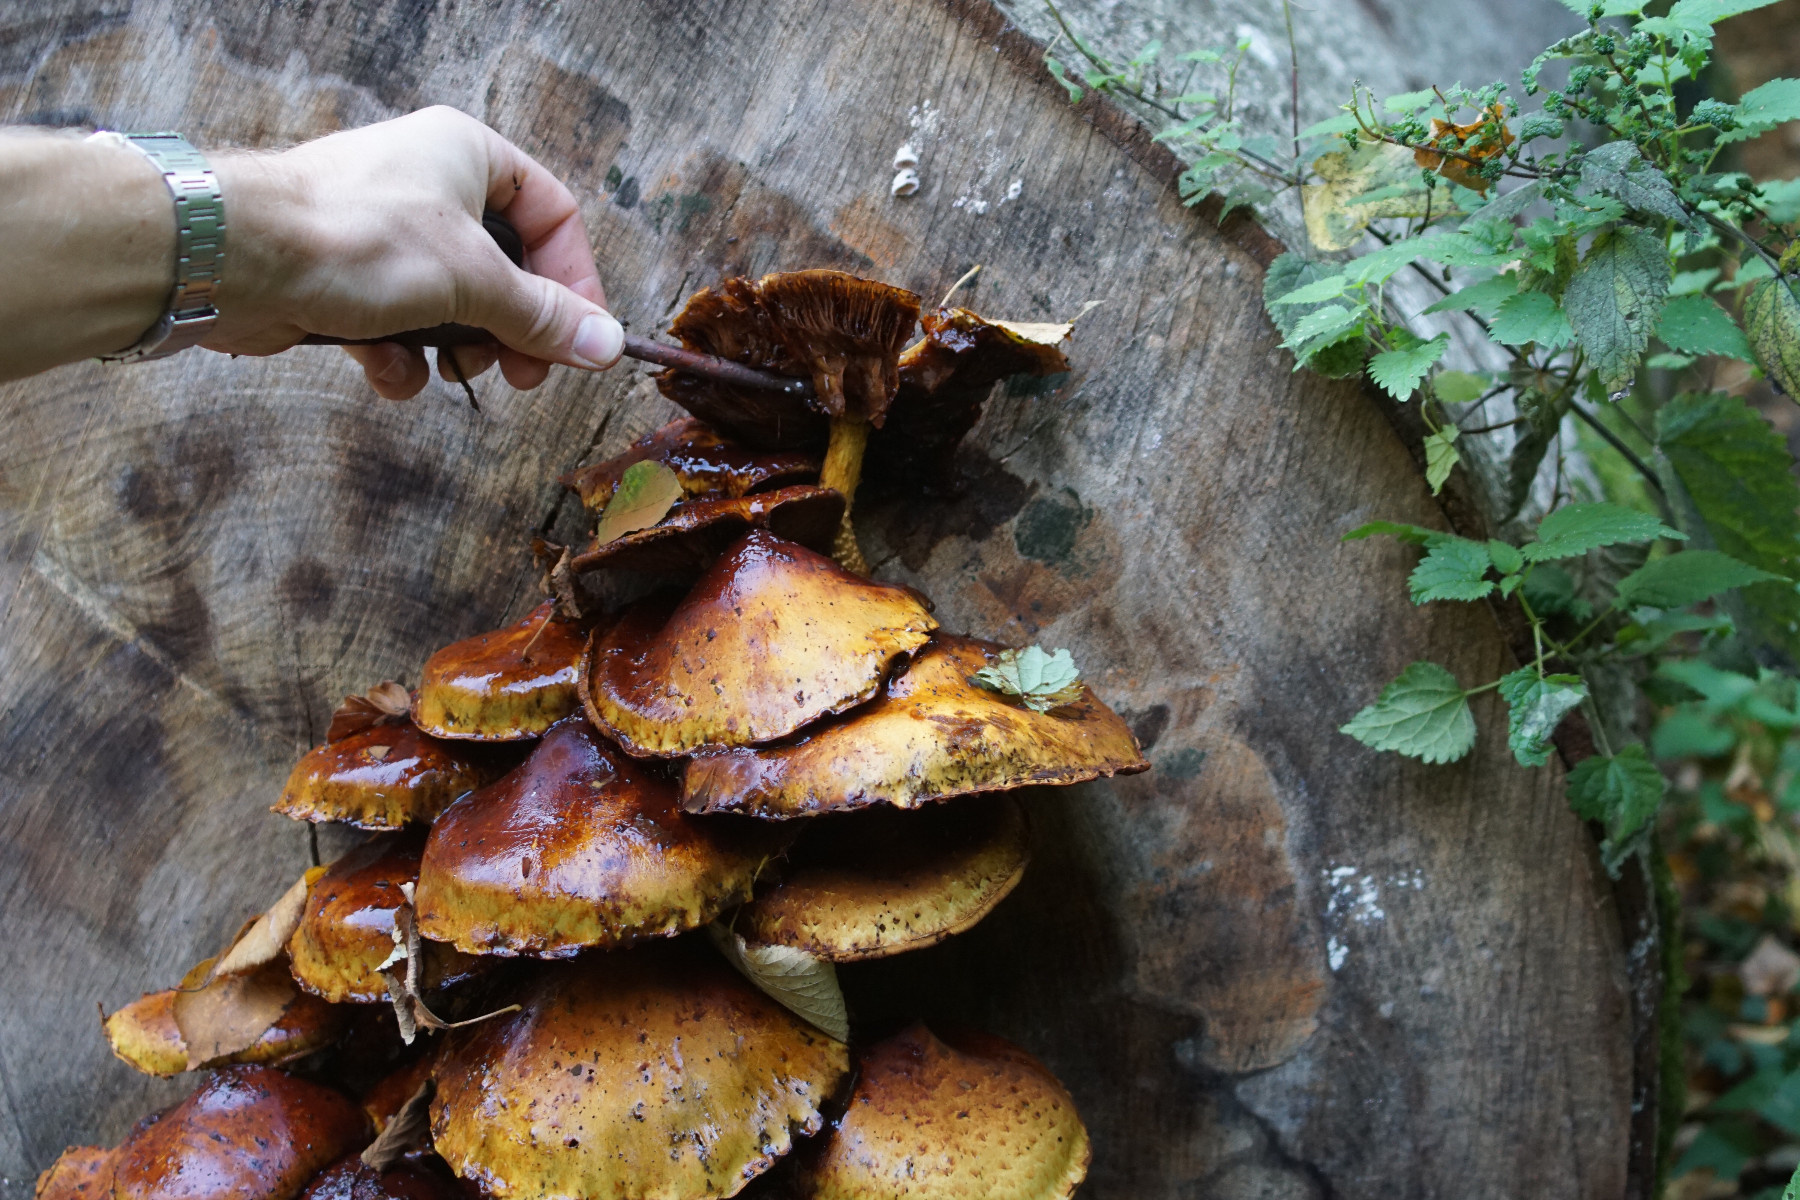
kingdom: Fungi
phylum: Basidiomycota
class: Agaricomycetes
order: Agaricales
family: Strophariaceae
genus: Pholiota
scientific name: Pholiota adiposa
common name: højtsiddende skælhat
